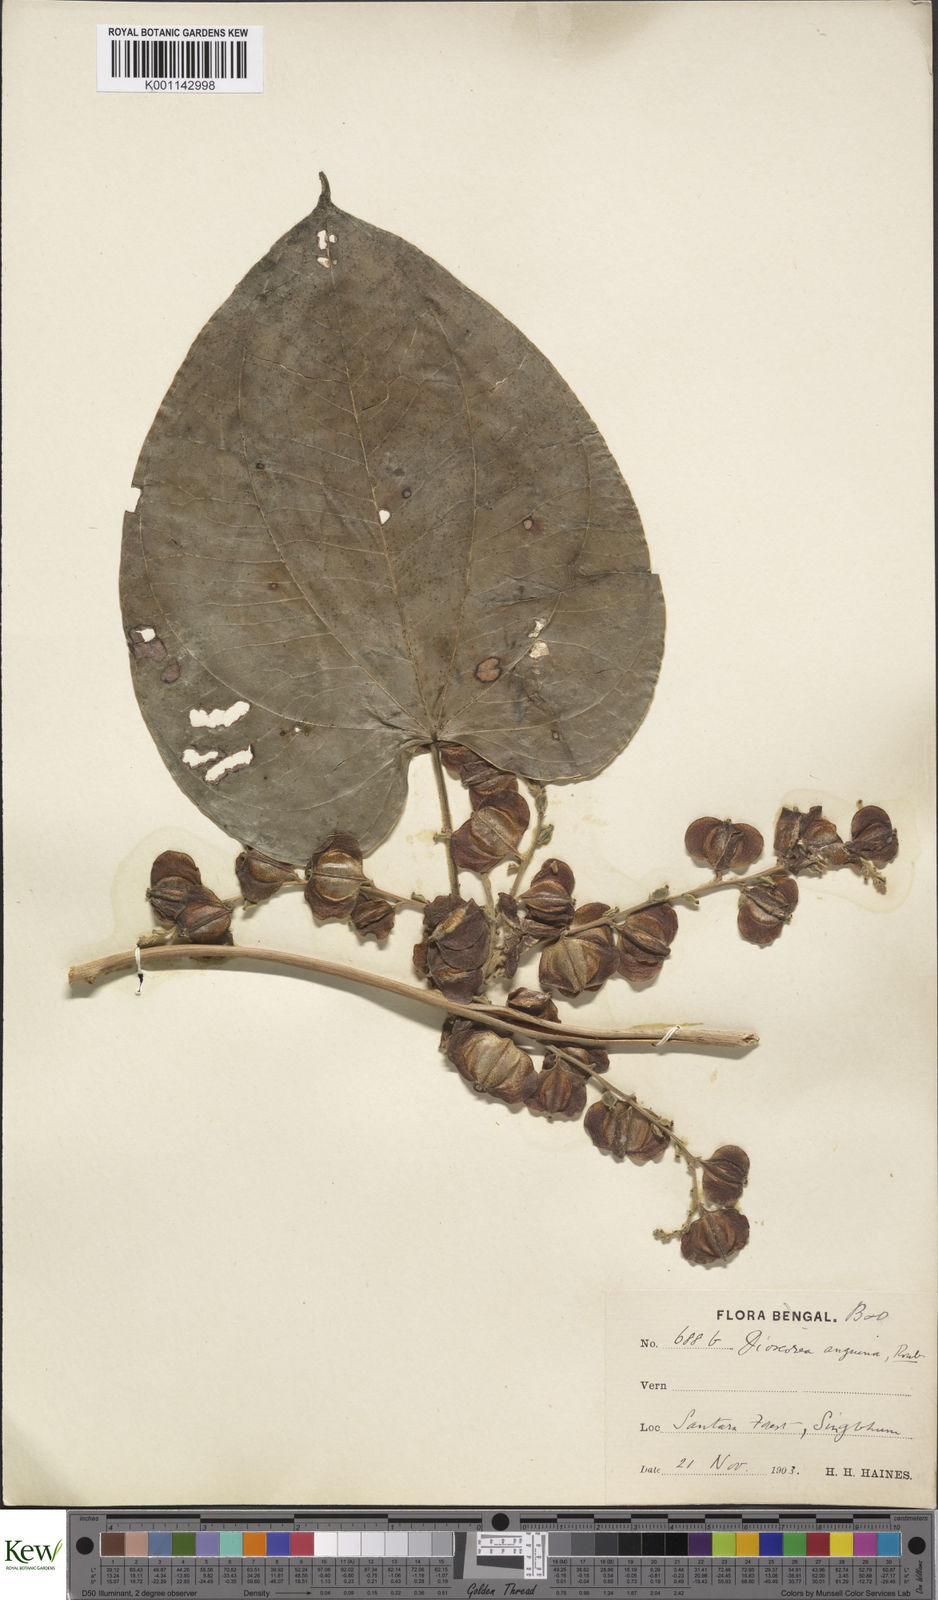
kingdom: Plantae
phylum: Tracheophyta
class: Liliopsida
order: Dioscoreales
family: Dioscoreaceae
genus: Dioscorea
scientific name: Dioscorea pubera
